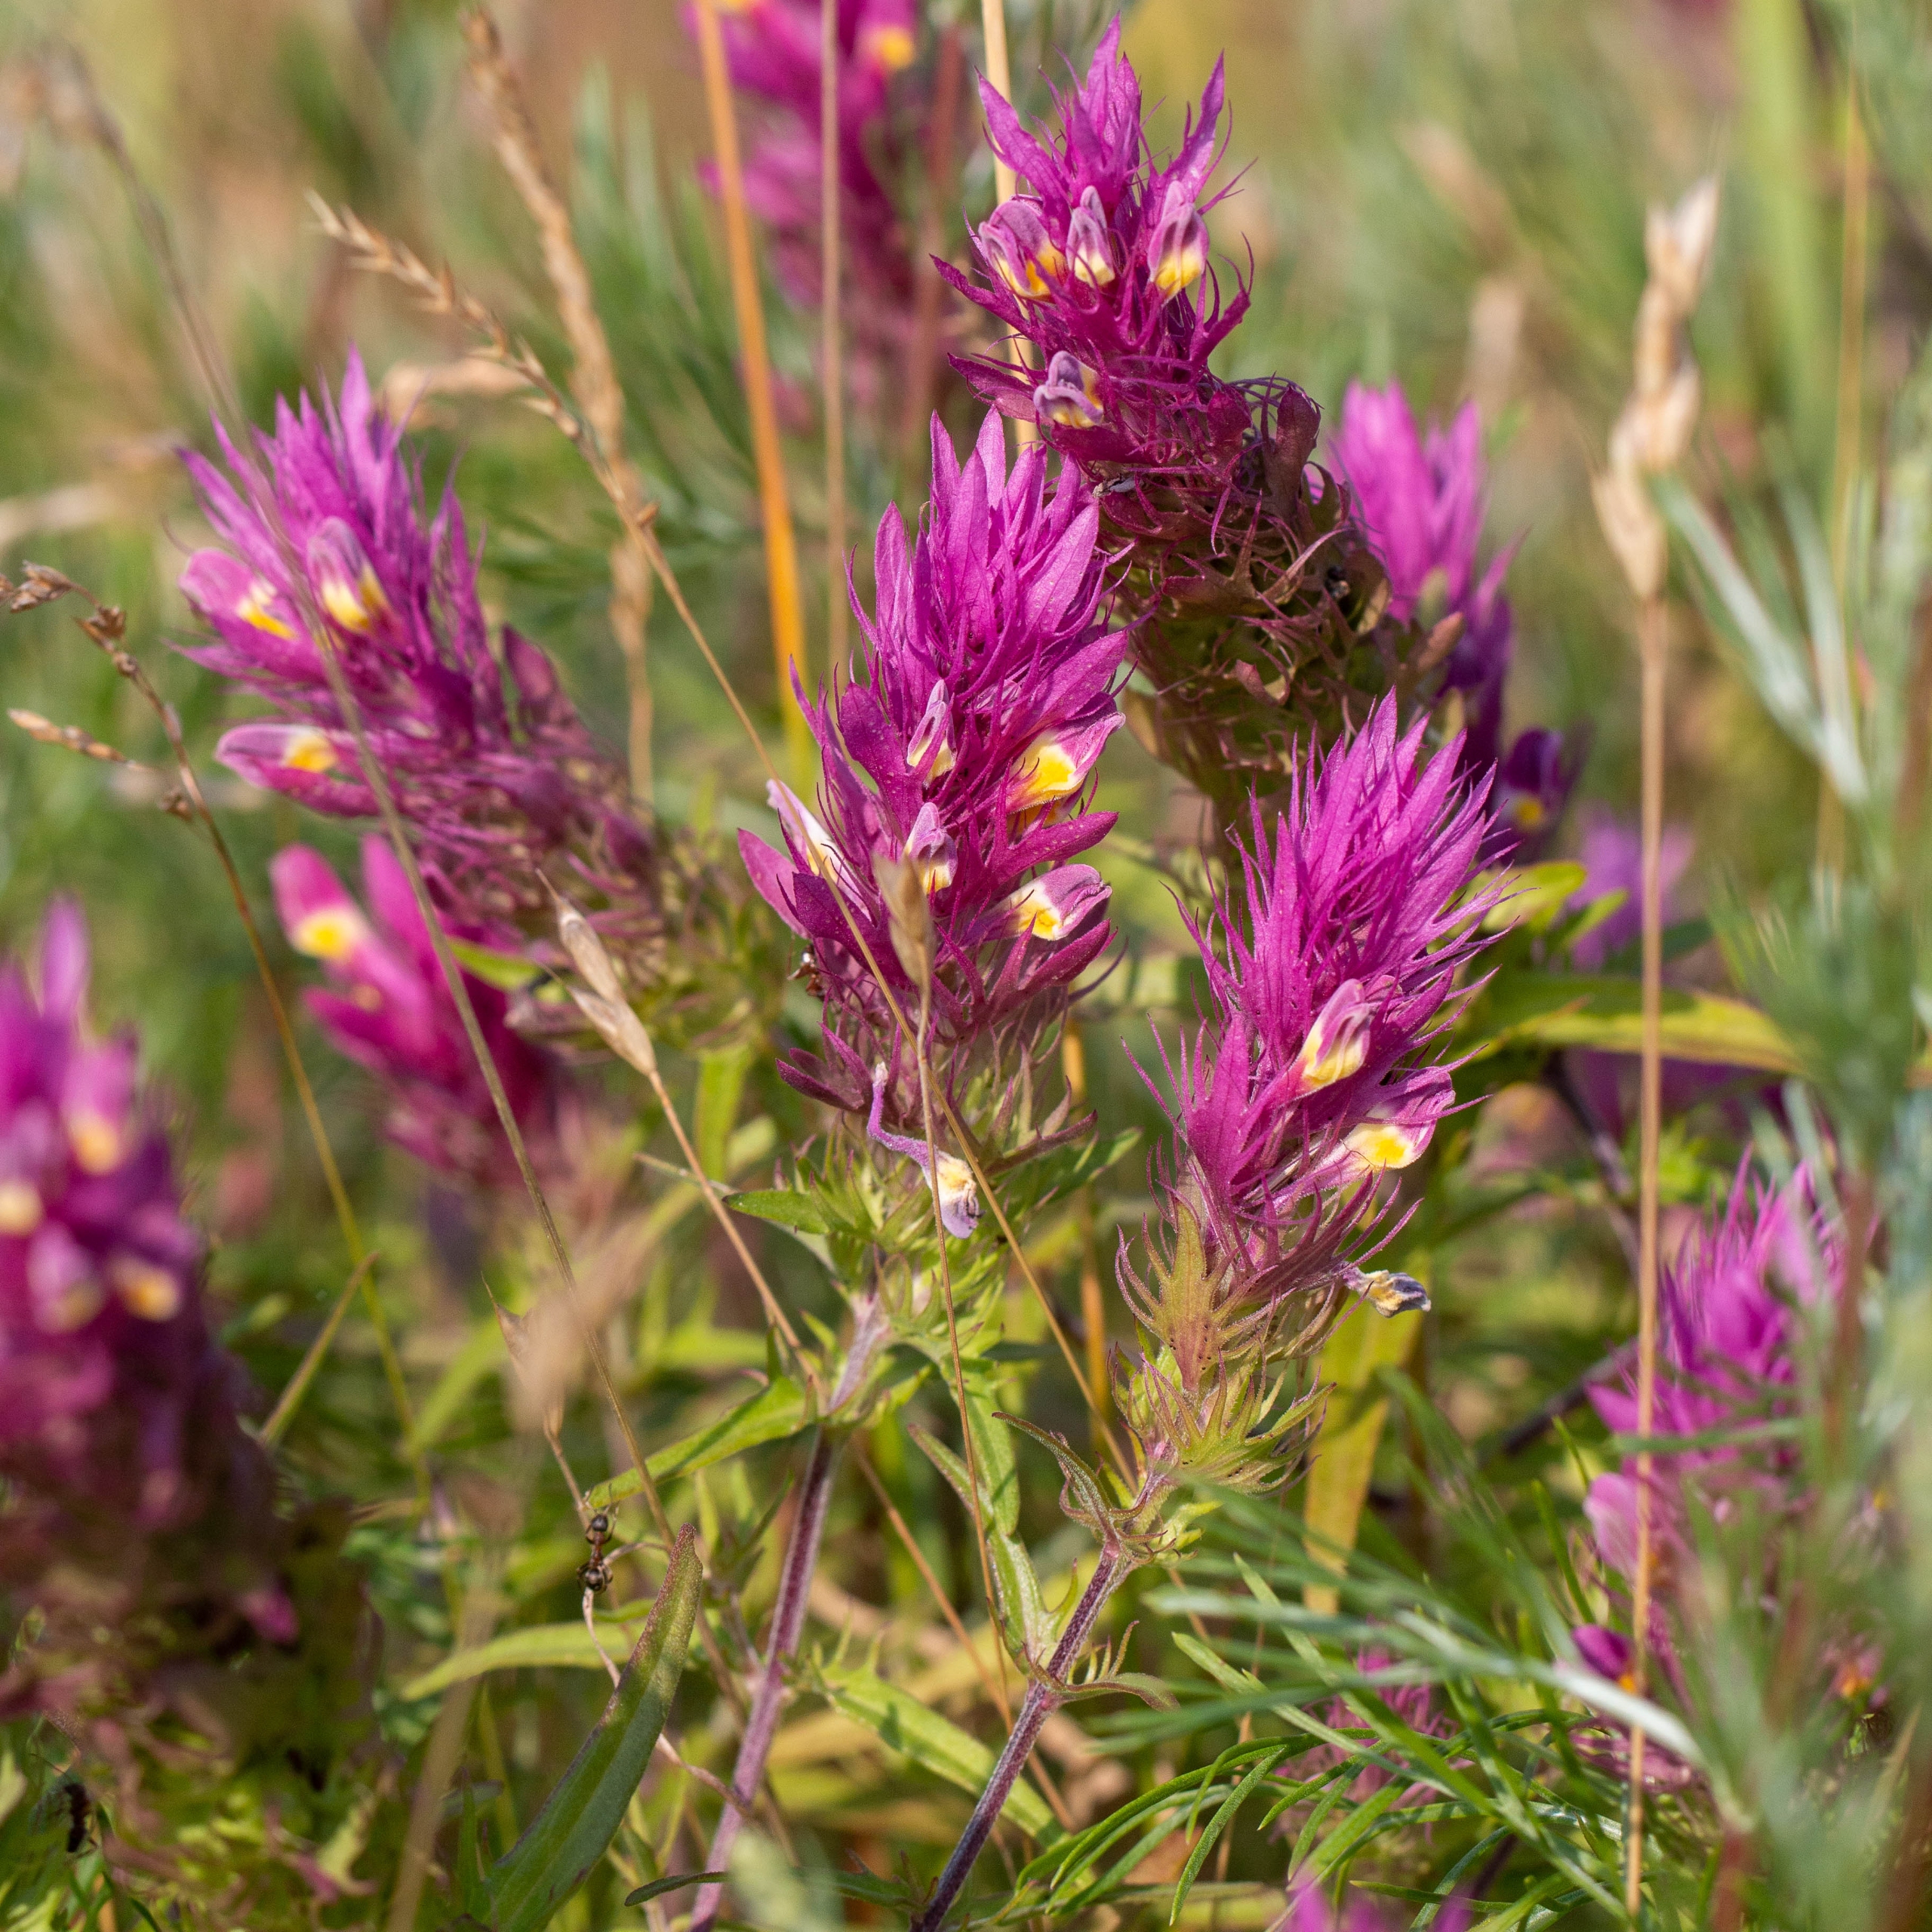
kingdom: Plantae
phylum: Tracheophyta
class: Magnoliopsida
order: Lamiales
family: Orobanchaceae
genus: Melampyrum
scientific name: Melampyrum arvense
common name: Ager-kohvede
